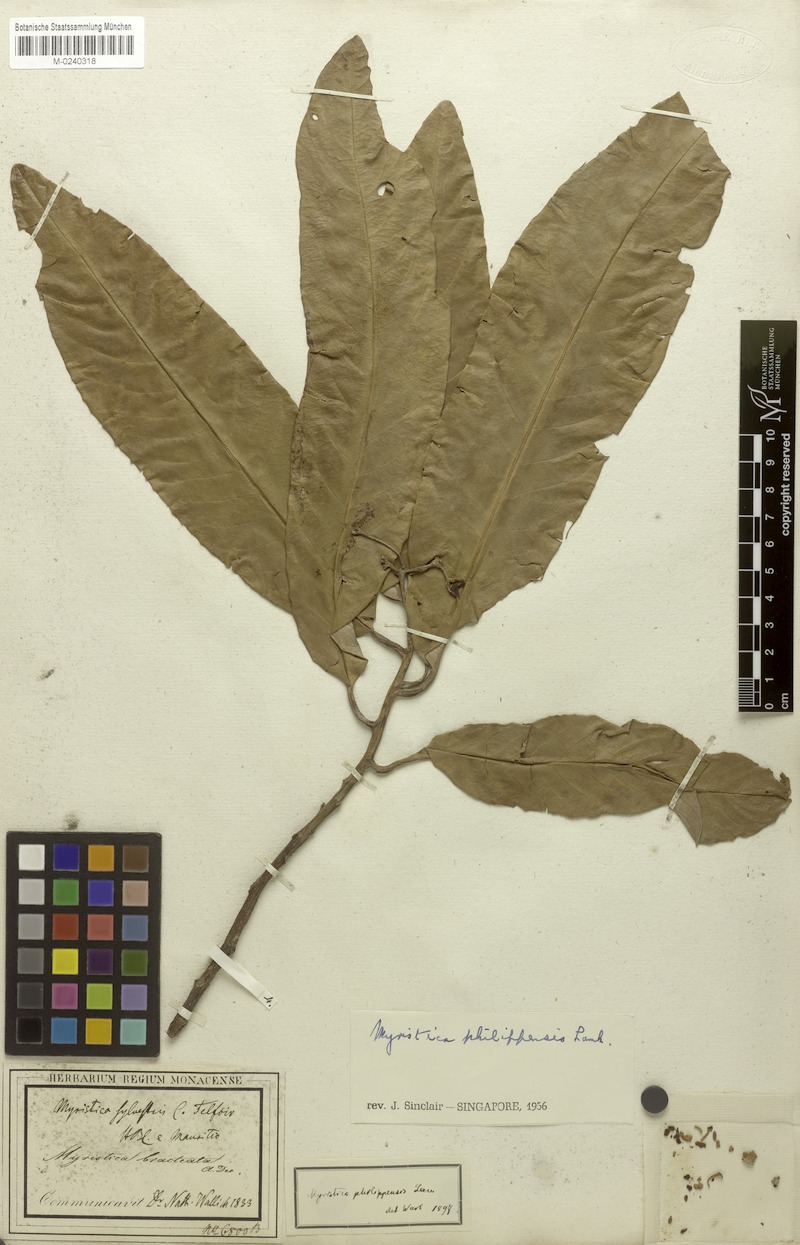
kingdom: Plantae
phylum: Tracheophyta
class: Magnoliopsida
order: Magnoliales
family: Myristicaceae
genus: Myristica
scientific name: Myristica philippensis
